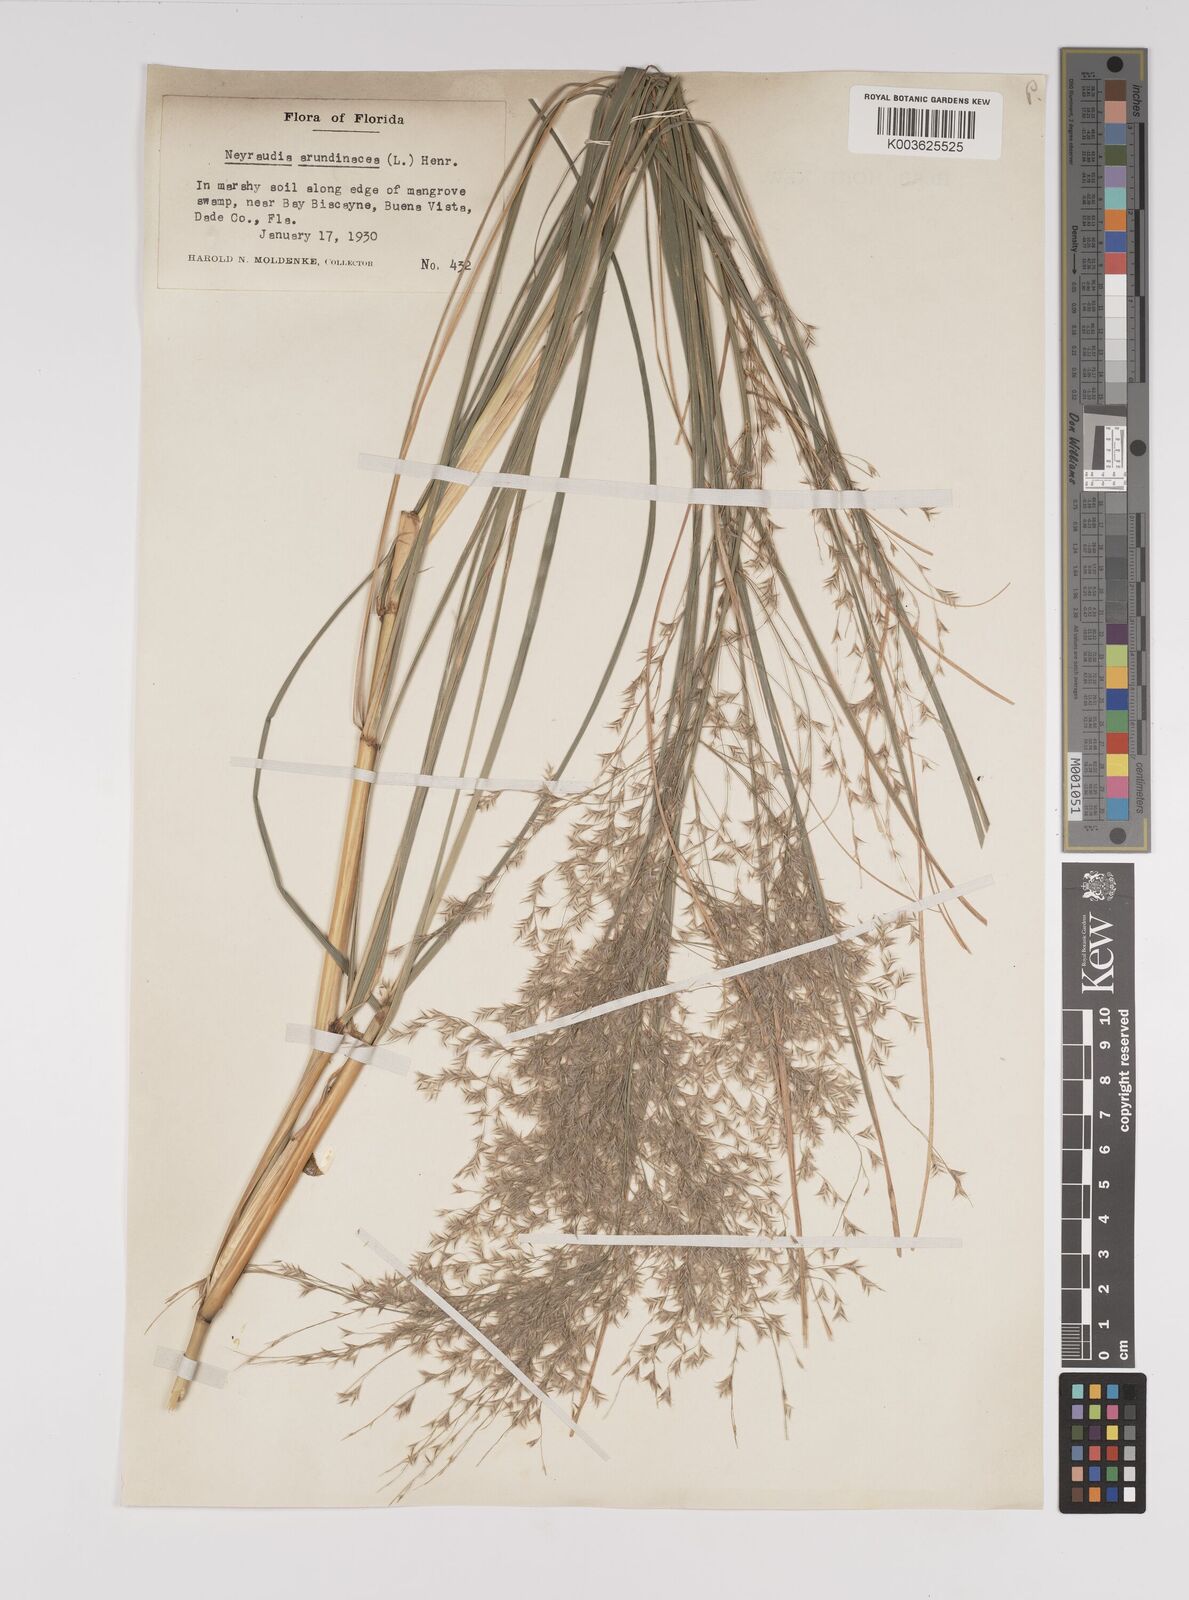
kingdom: Plantae
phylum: Tracheophyta
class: Liliopsida
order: Poales
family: Poaceae
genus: Neyraudia
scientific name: Neyraudia reynaudiana
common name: Silkreed
